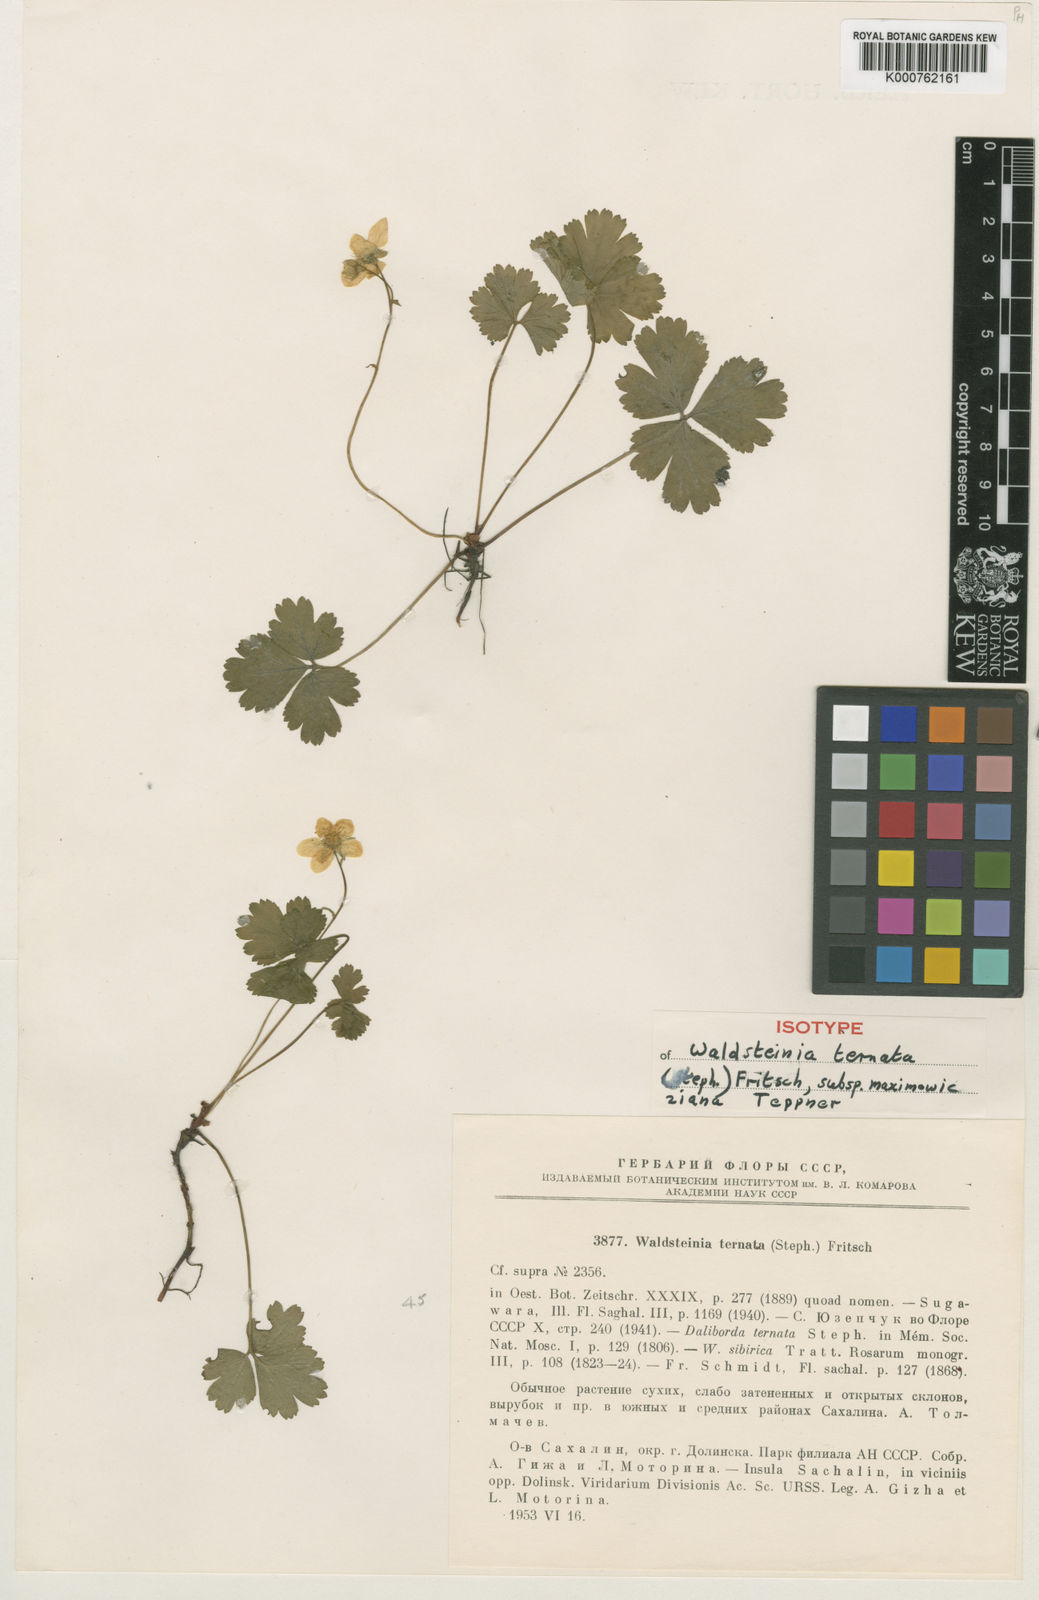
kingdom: Plantae
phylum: Tracheophyta
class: Magnoliopsida
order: Rosales
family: Rosaceae
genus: Geum
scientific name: Geum ternatum
